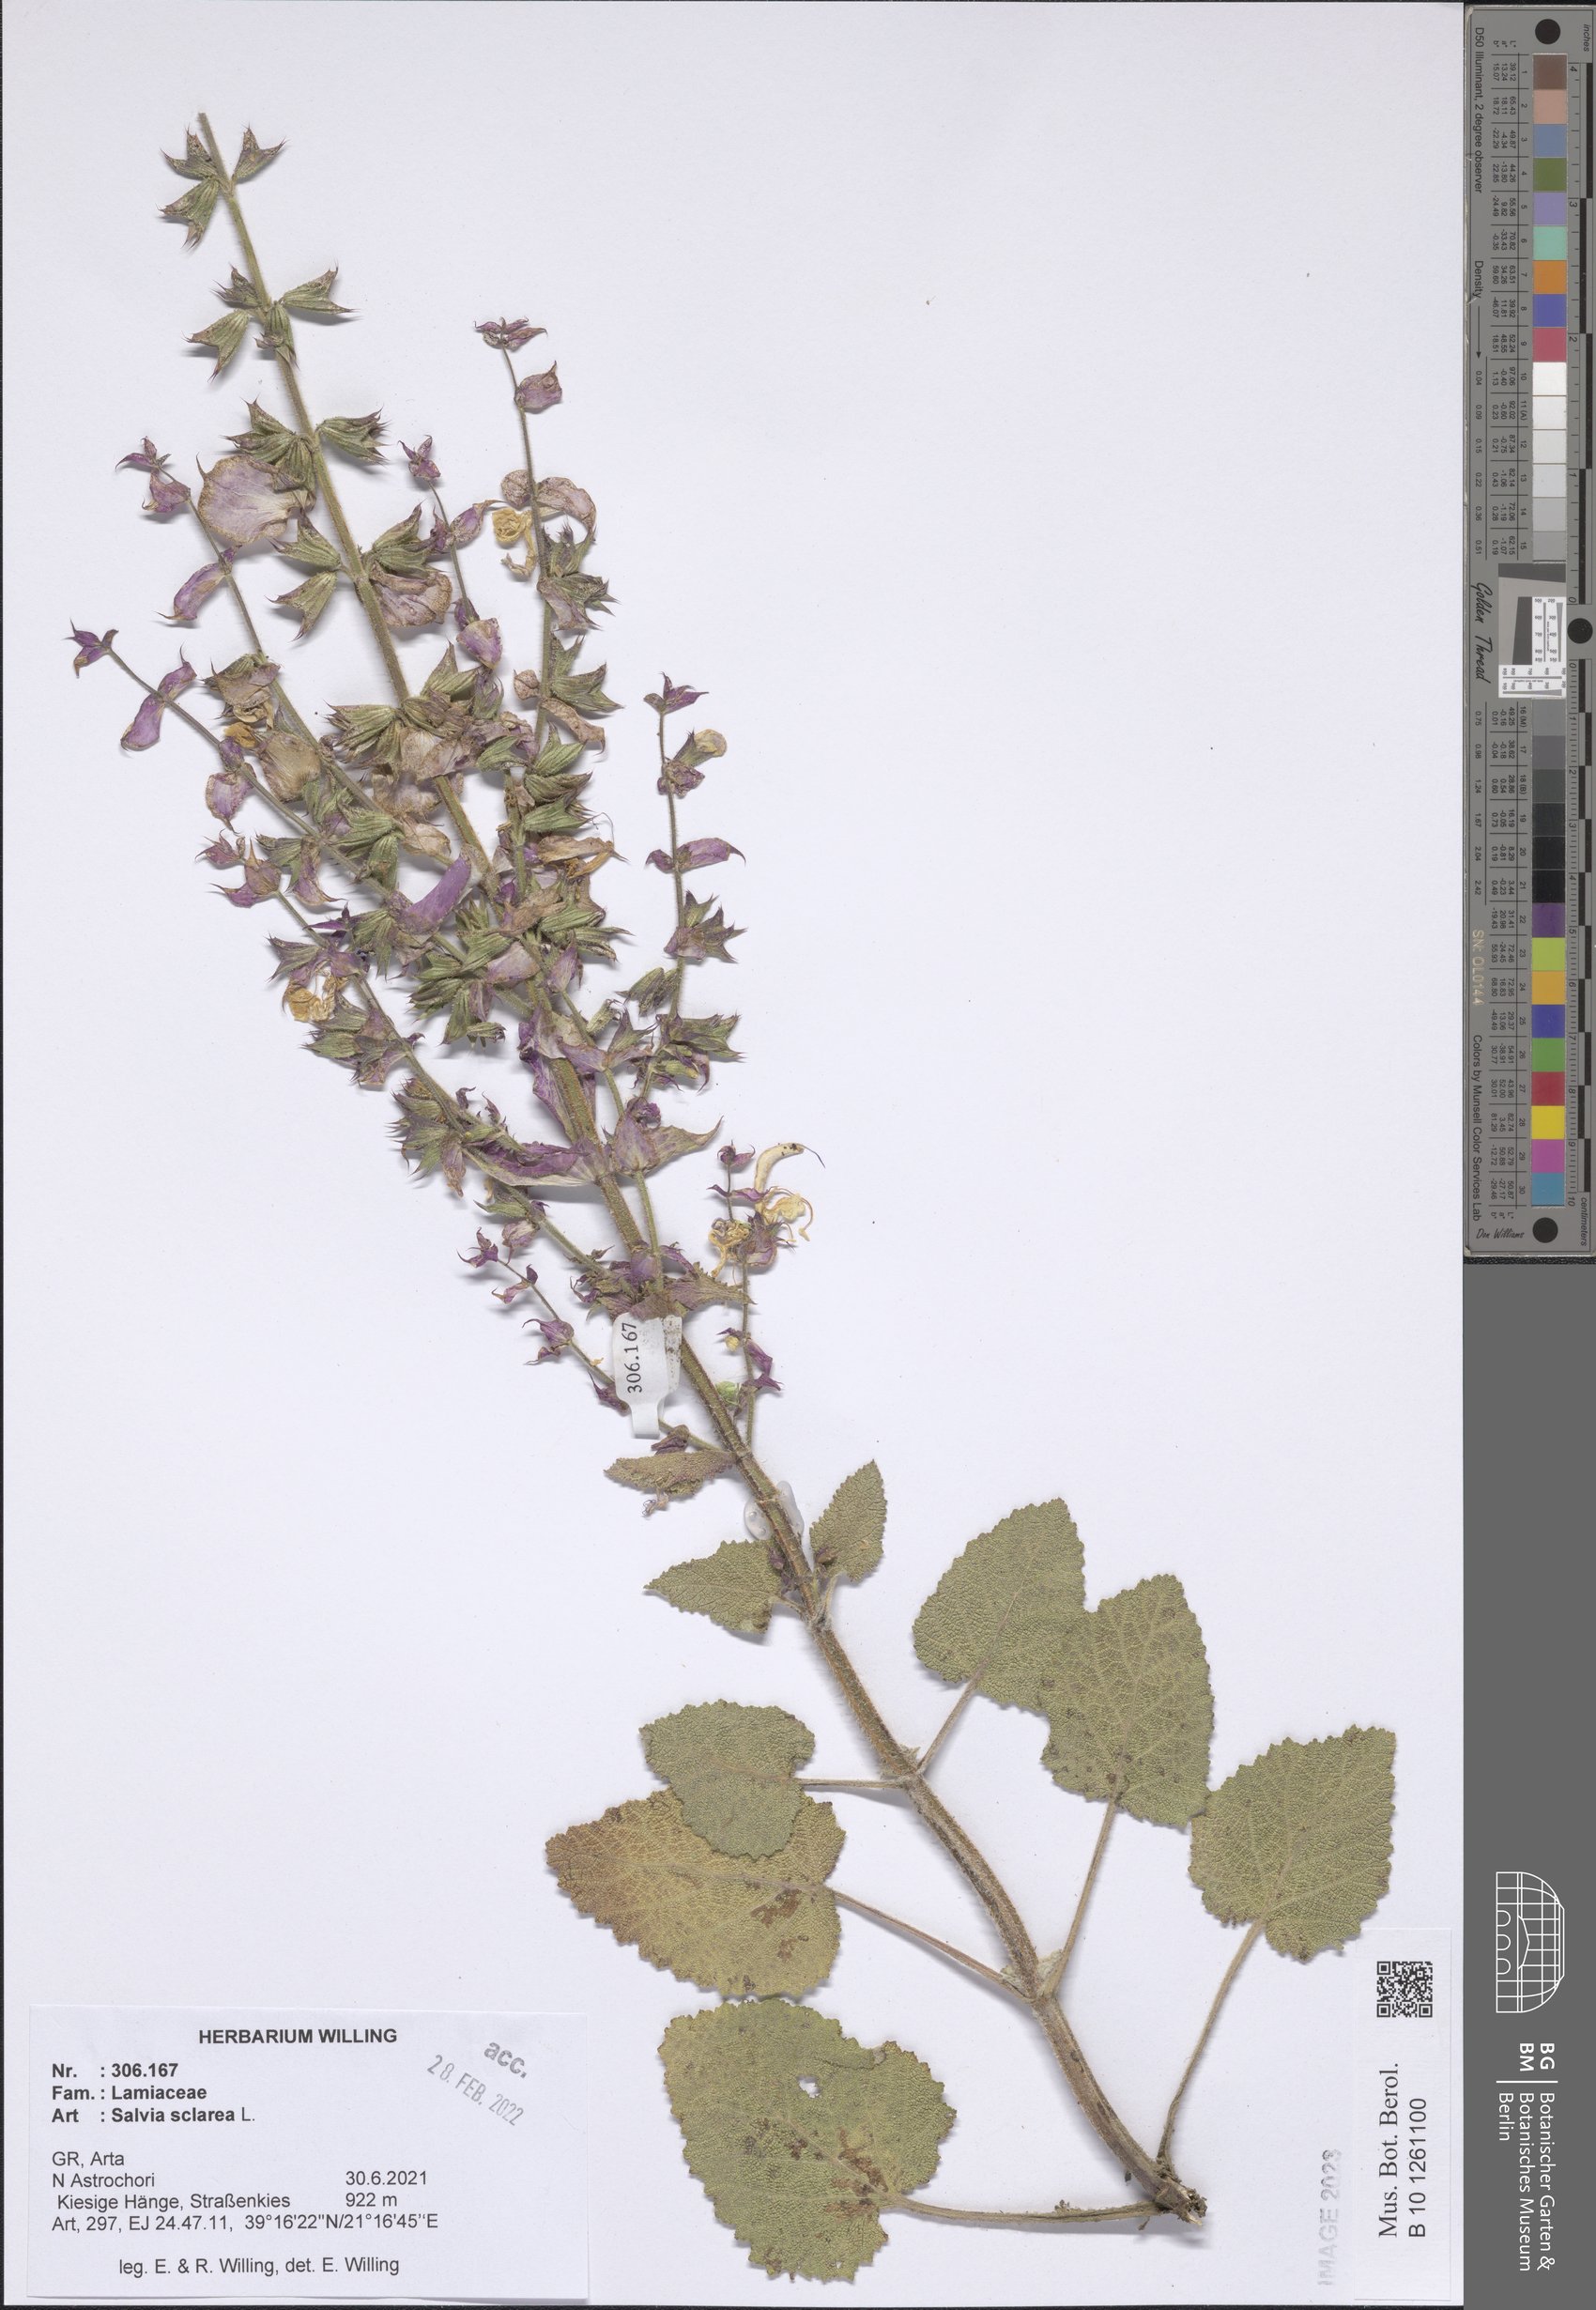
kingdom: Plantae
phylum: Tracheophyta
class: Magnoliopsida
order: Lamiales
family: Lamiaceae
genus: Salvia
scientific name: Salvia sclarea
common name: Clary
